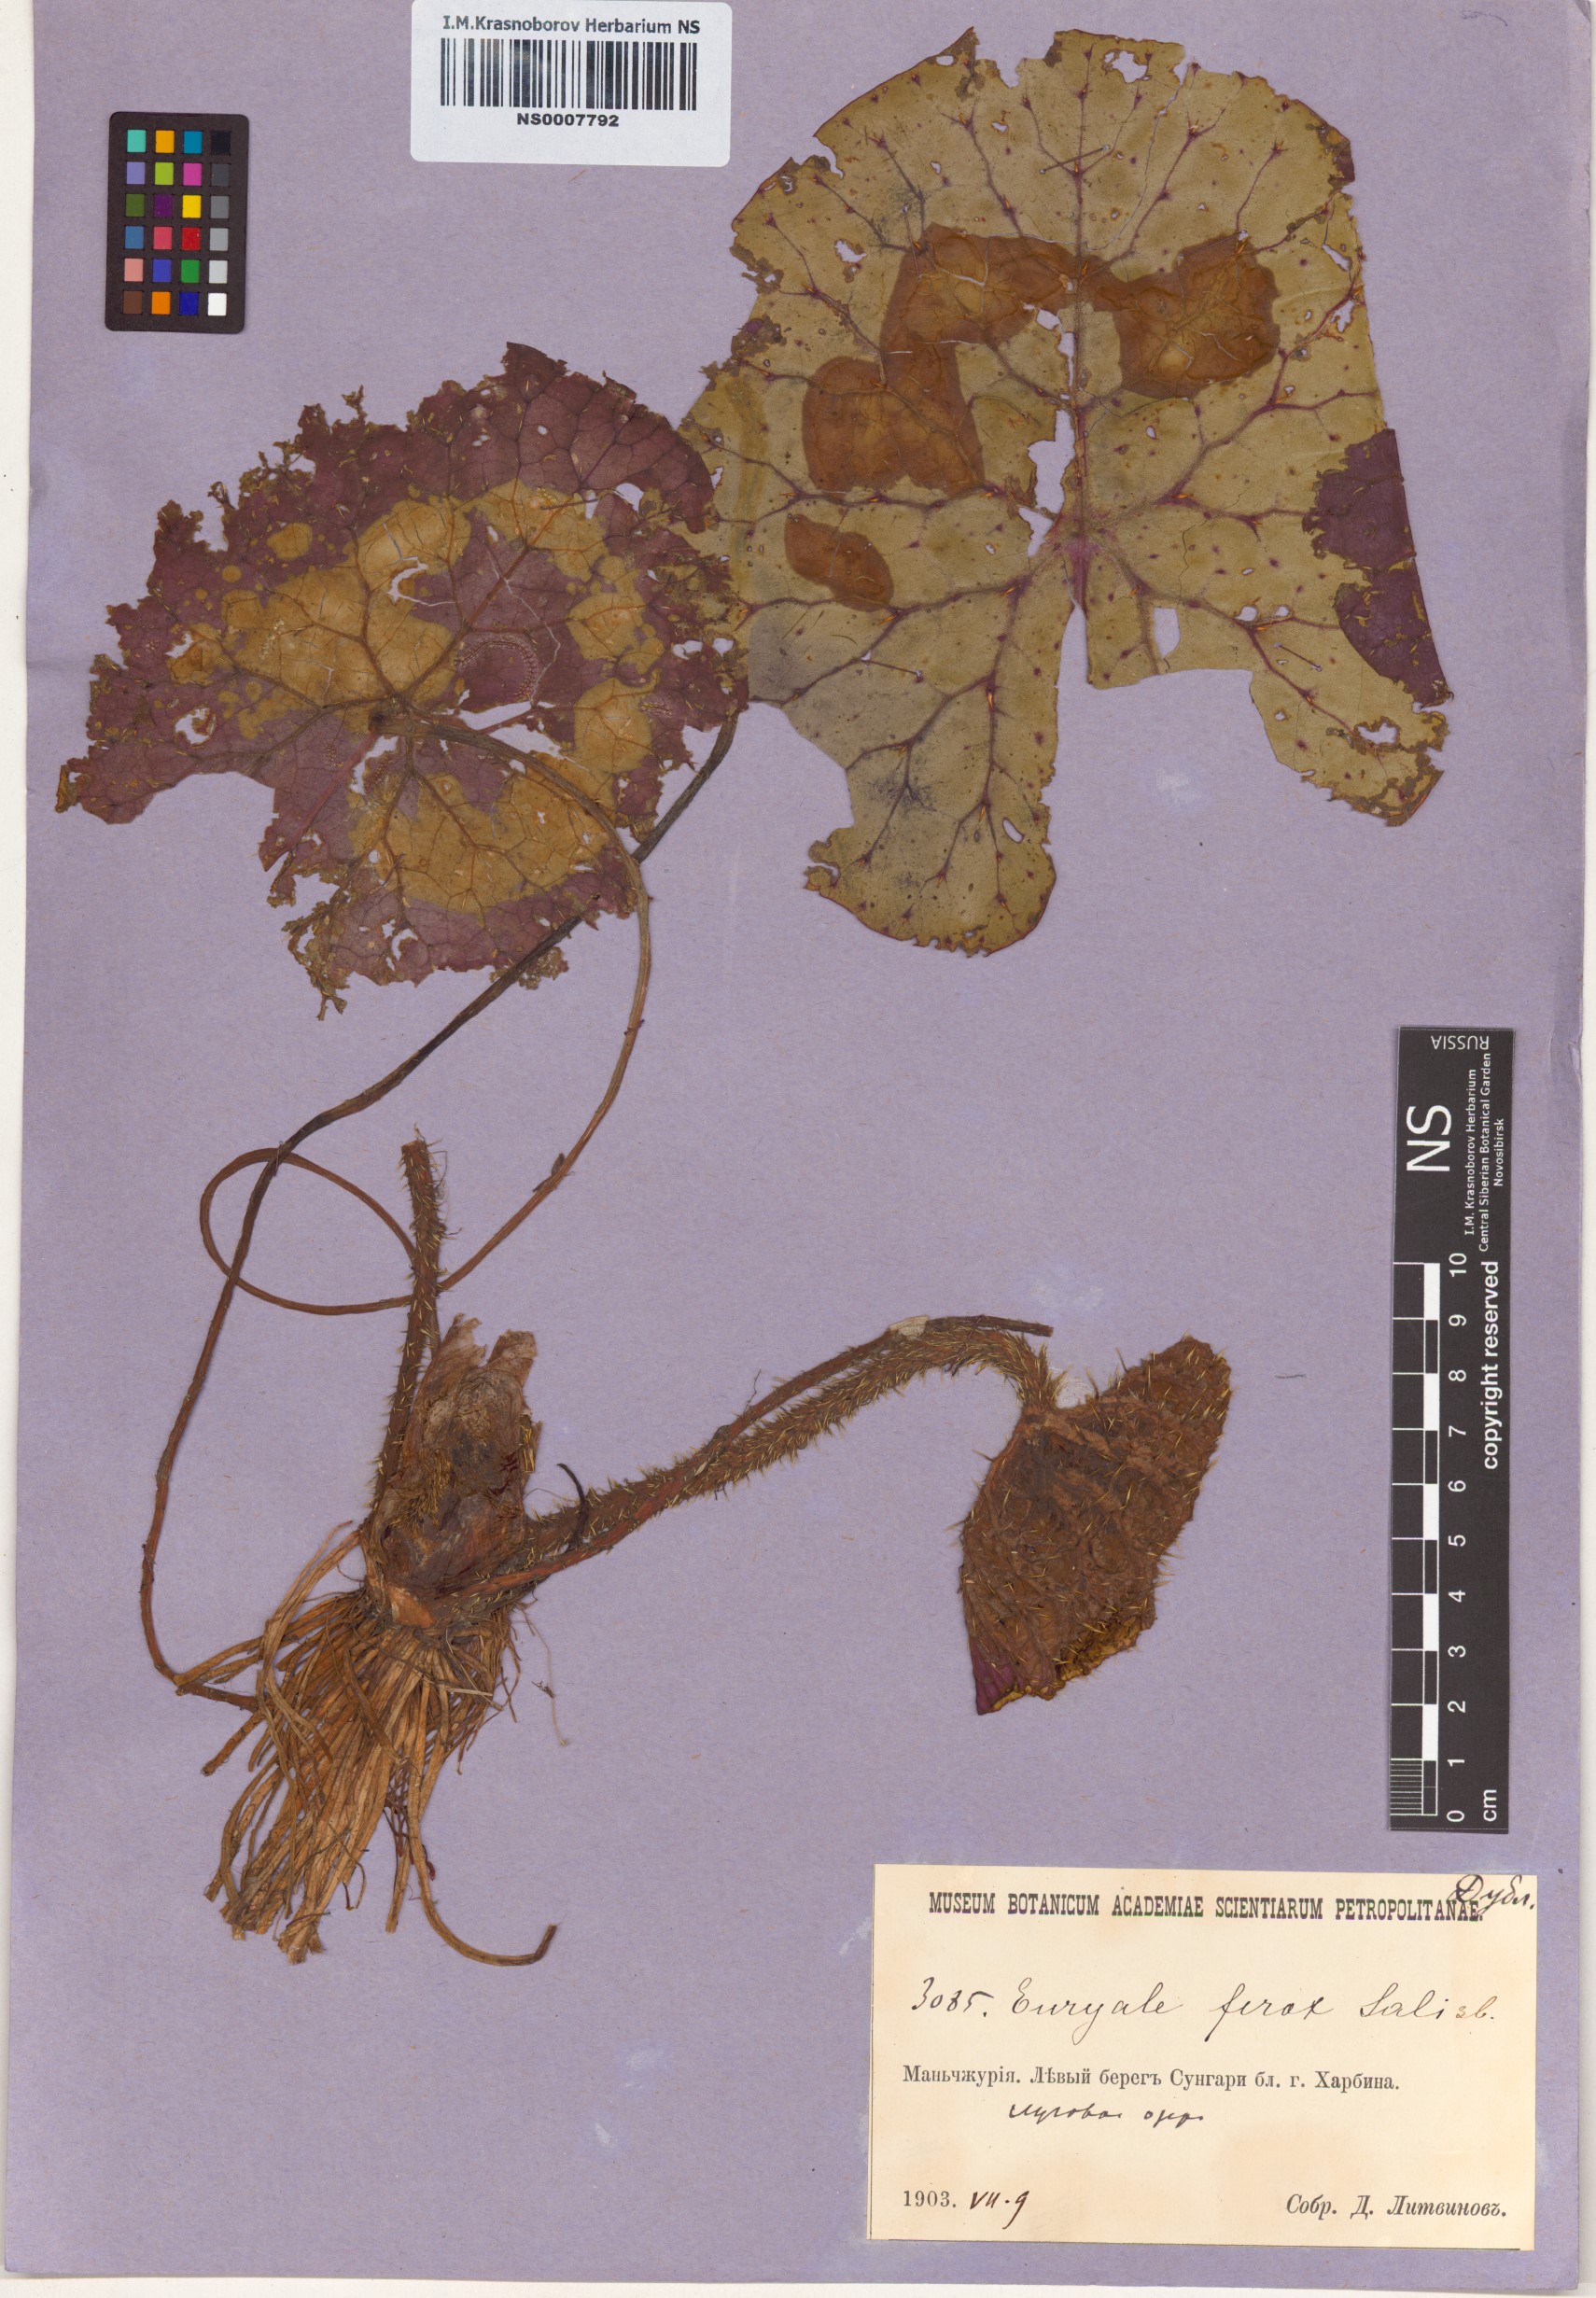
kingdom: Plantae
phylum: Tracheophyta
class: Magnoliopsida
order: Nymphaeales
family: Nymphaeaceae
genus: Euryale
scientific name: Euryale ferox
